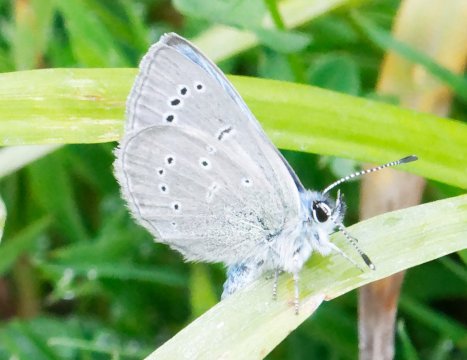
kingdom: Animalia
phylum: Arthropoda
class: Insecta
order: Lepidoptera
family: Lycaenidae
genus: Glaucopsyche
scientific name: Glaucopsyche lygdamus
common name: Silvery Blue
